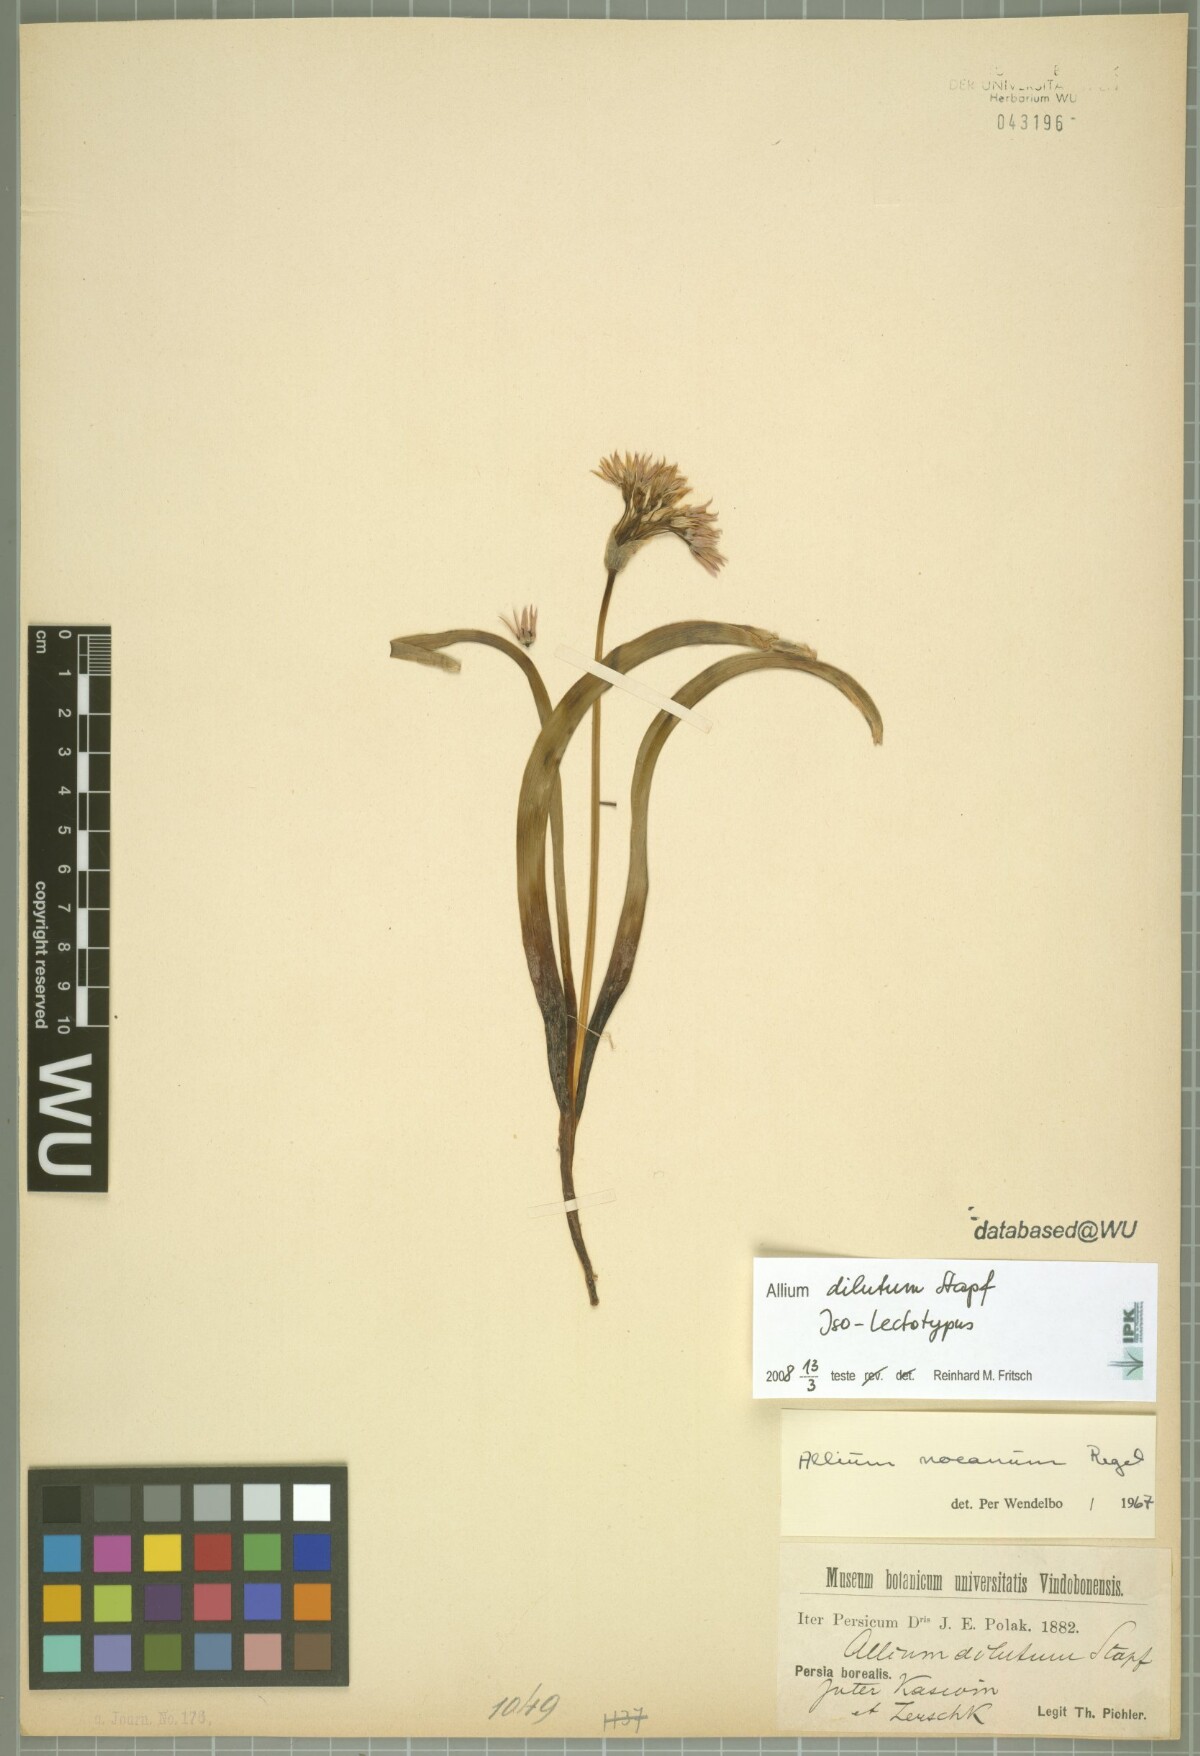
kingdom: Plantae
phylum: Tracheophyta
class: Liliopsida
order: Asparagales
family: Amaryllidaceae
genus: Allium
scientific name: Allium noeanum
